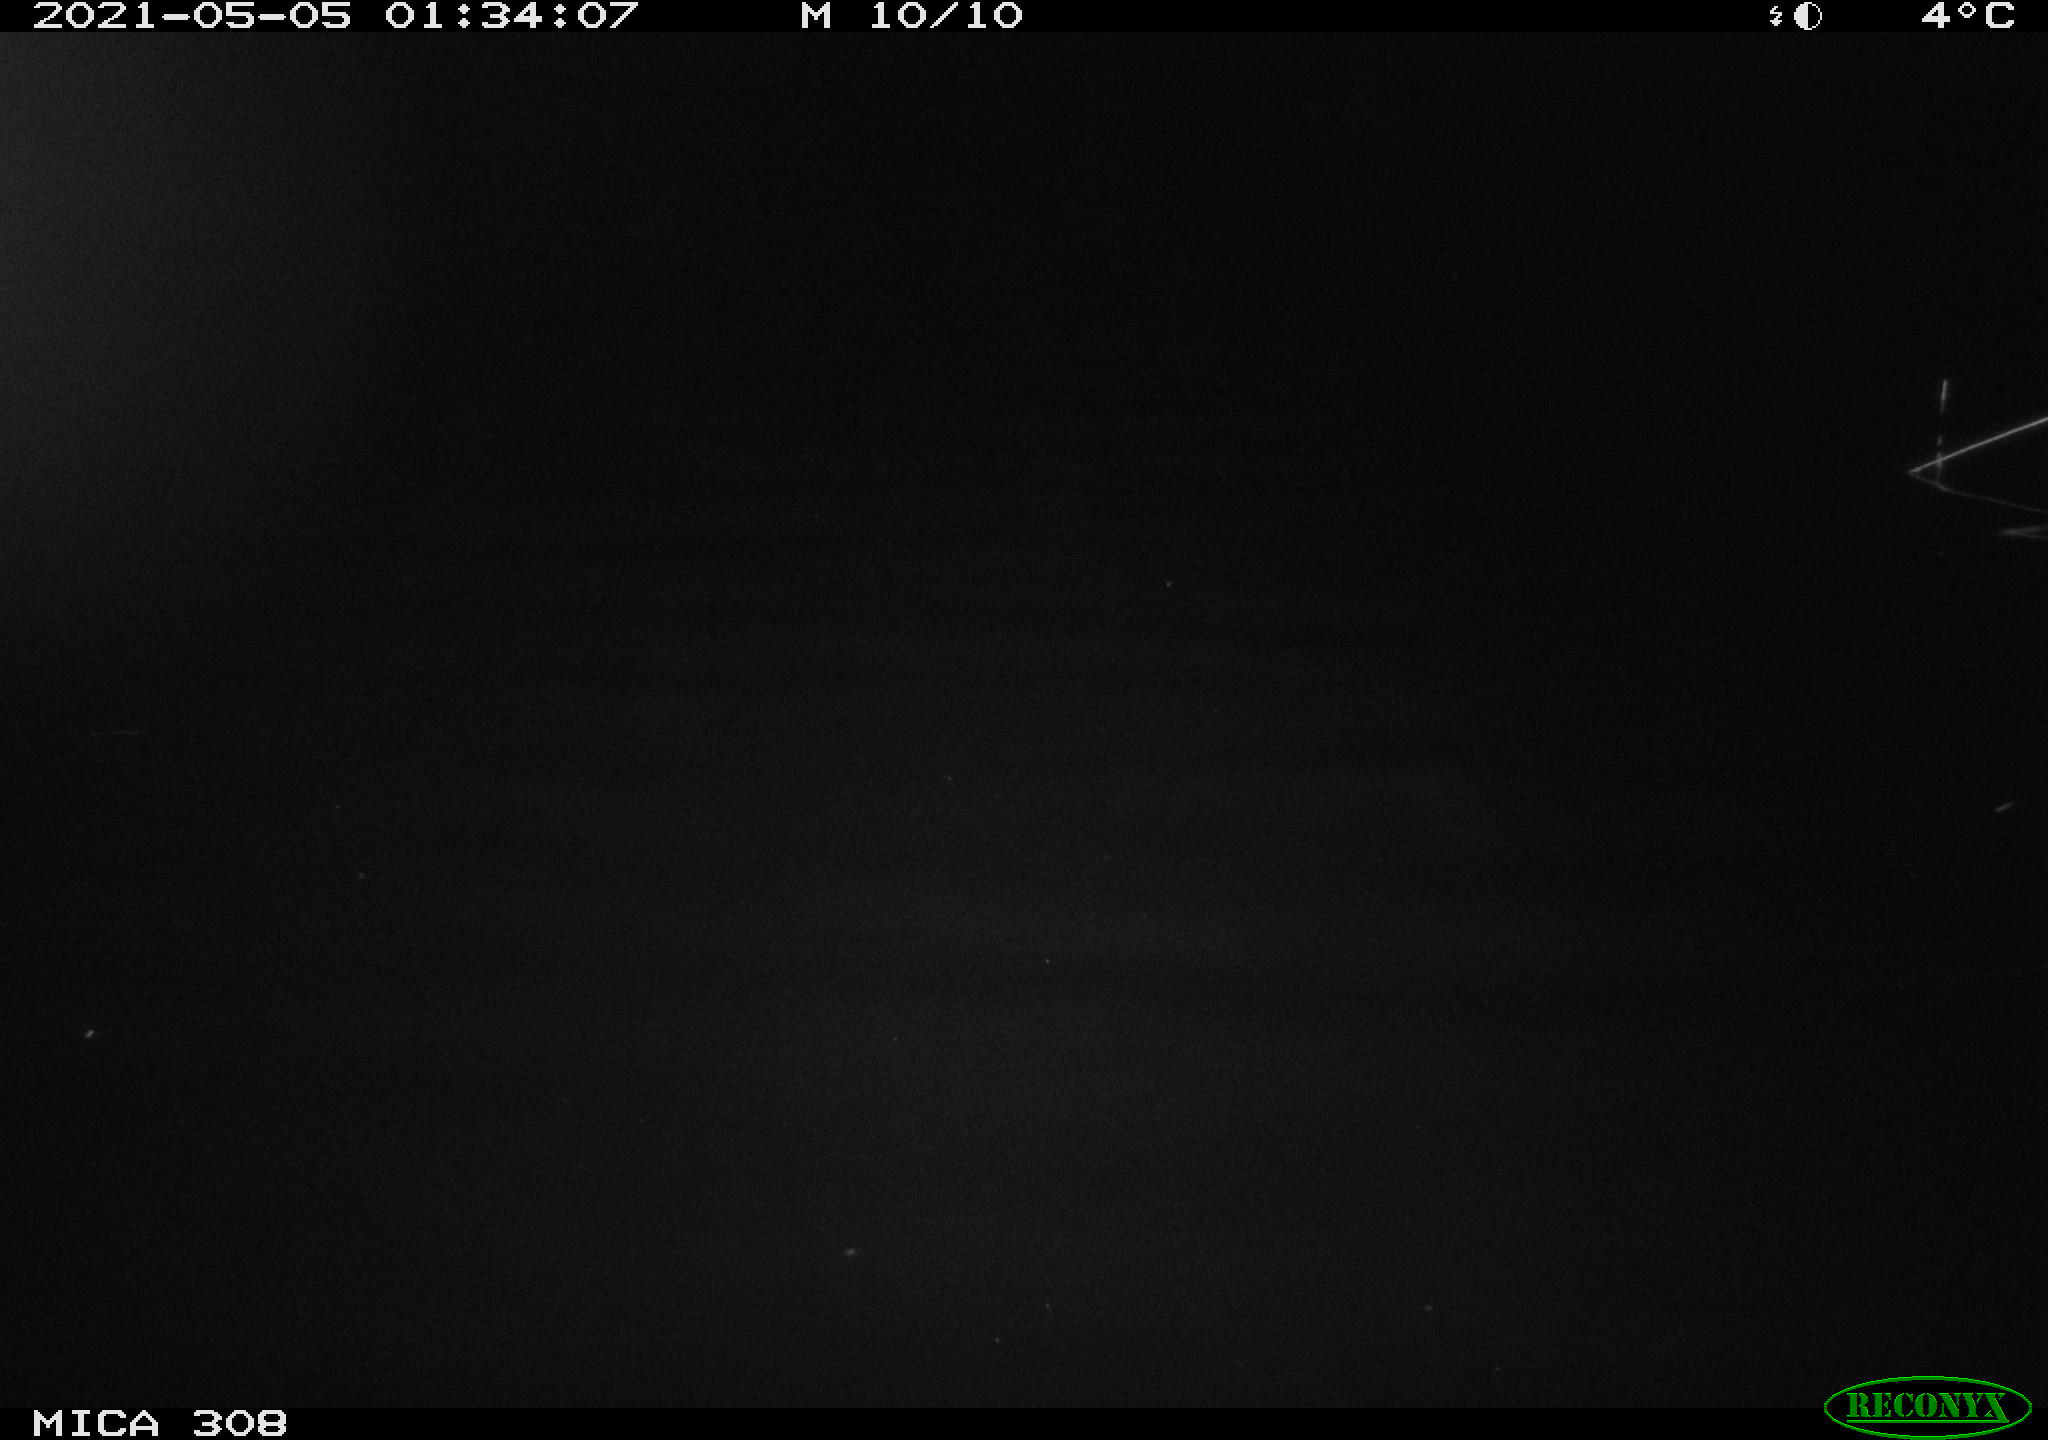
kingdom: Animalia
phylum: Chordata
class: Aves
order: Anseriformes
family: Anatidae
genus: Anas
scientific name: Anas platyrhynchos
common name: Mallard
